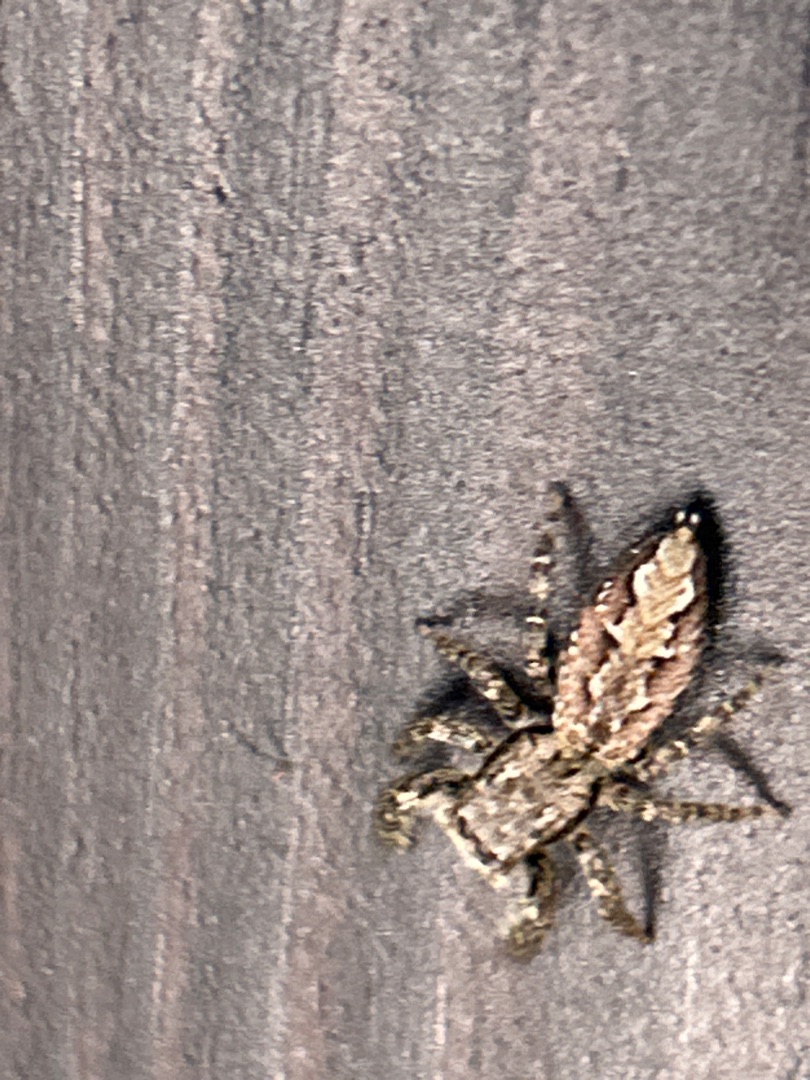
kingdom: Animalia
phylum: Arthropoda
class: Arachnida
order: Araneae
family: Salticidae
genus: Marpissa
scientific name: Marpissa muscosa
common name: Stor springedderkop
